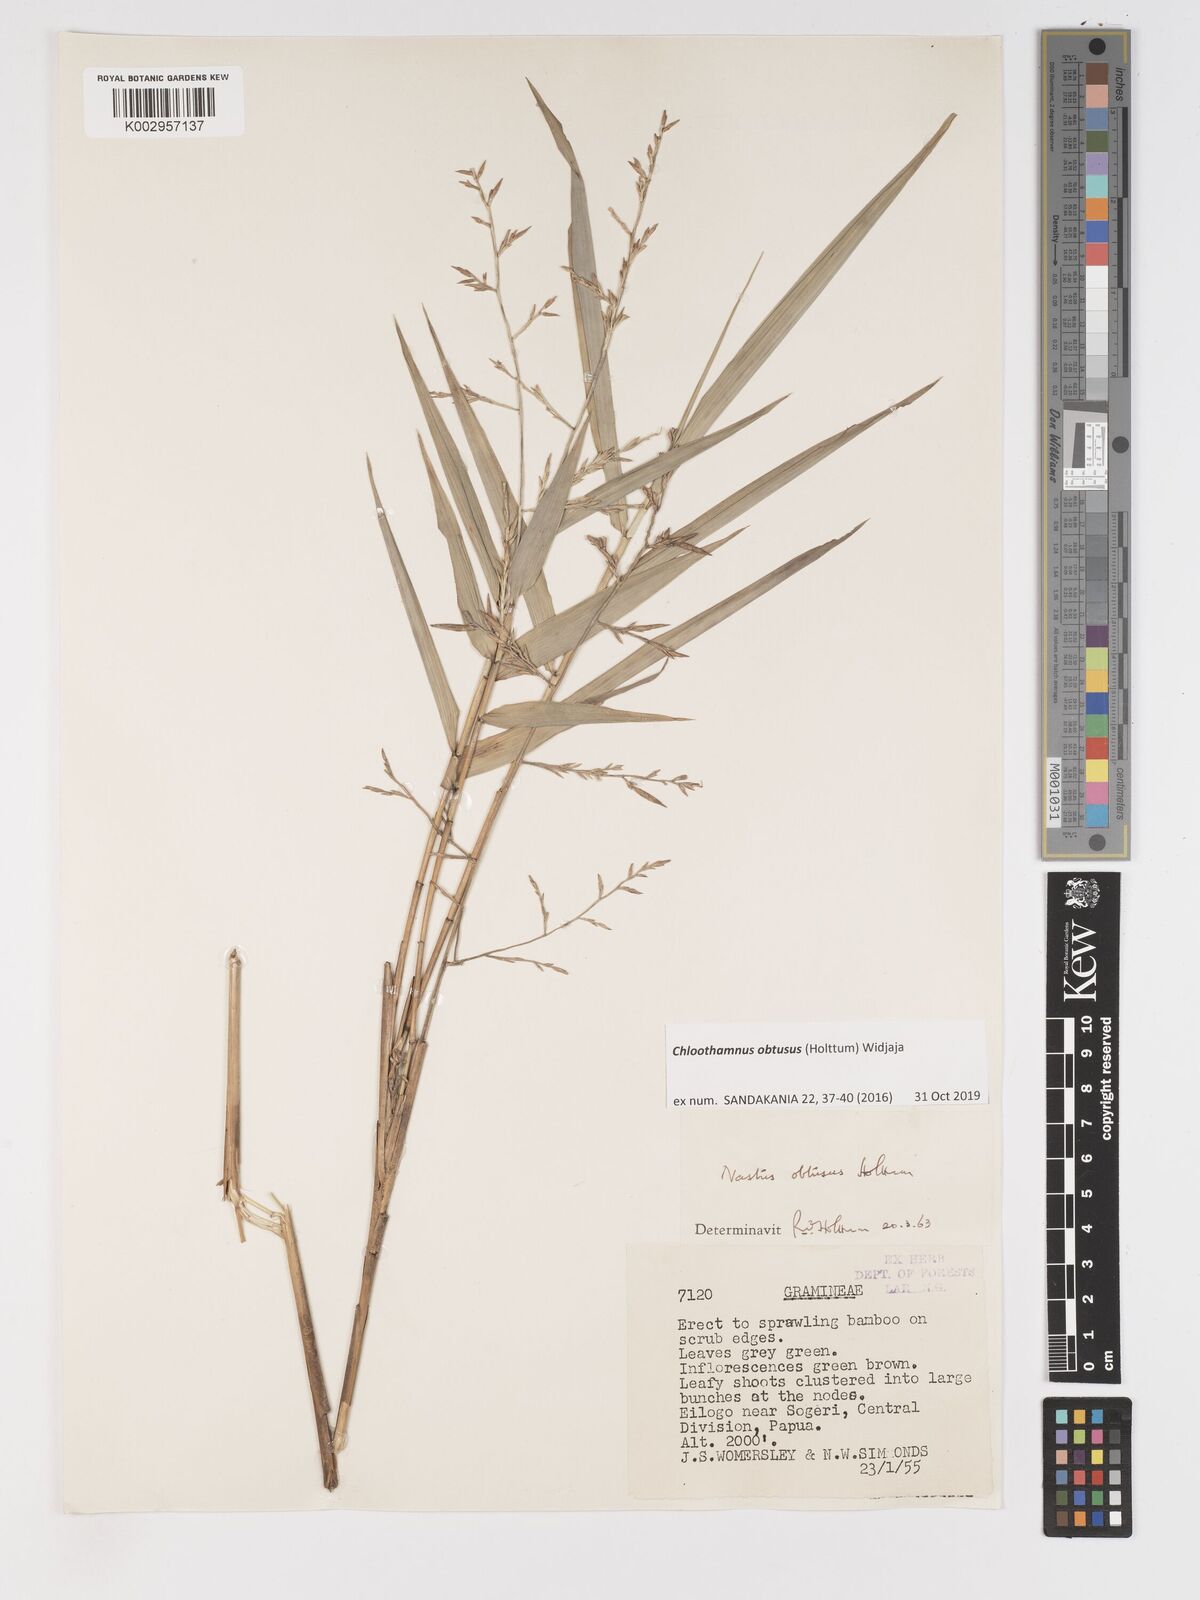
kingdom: Plantae
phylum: Tracheophyta
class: Liliopsida
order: Poales
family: Poaceae
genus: Chloothamnus
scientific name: Chloothamnus obtusus
